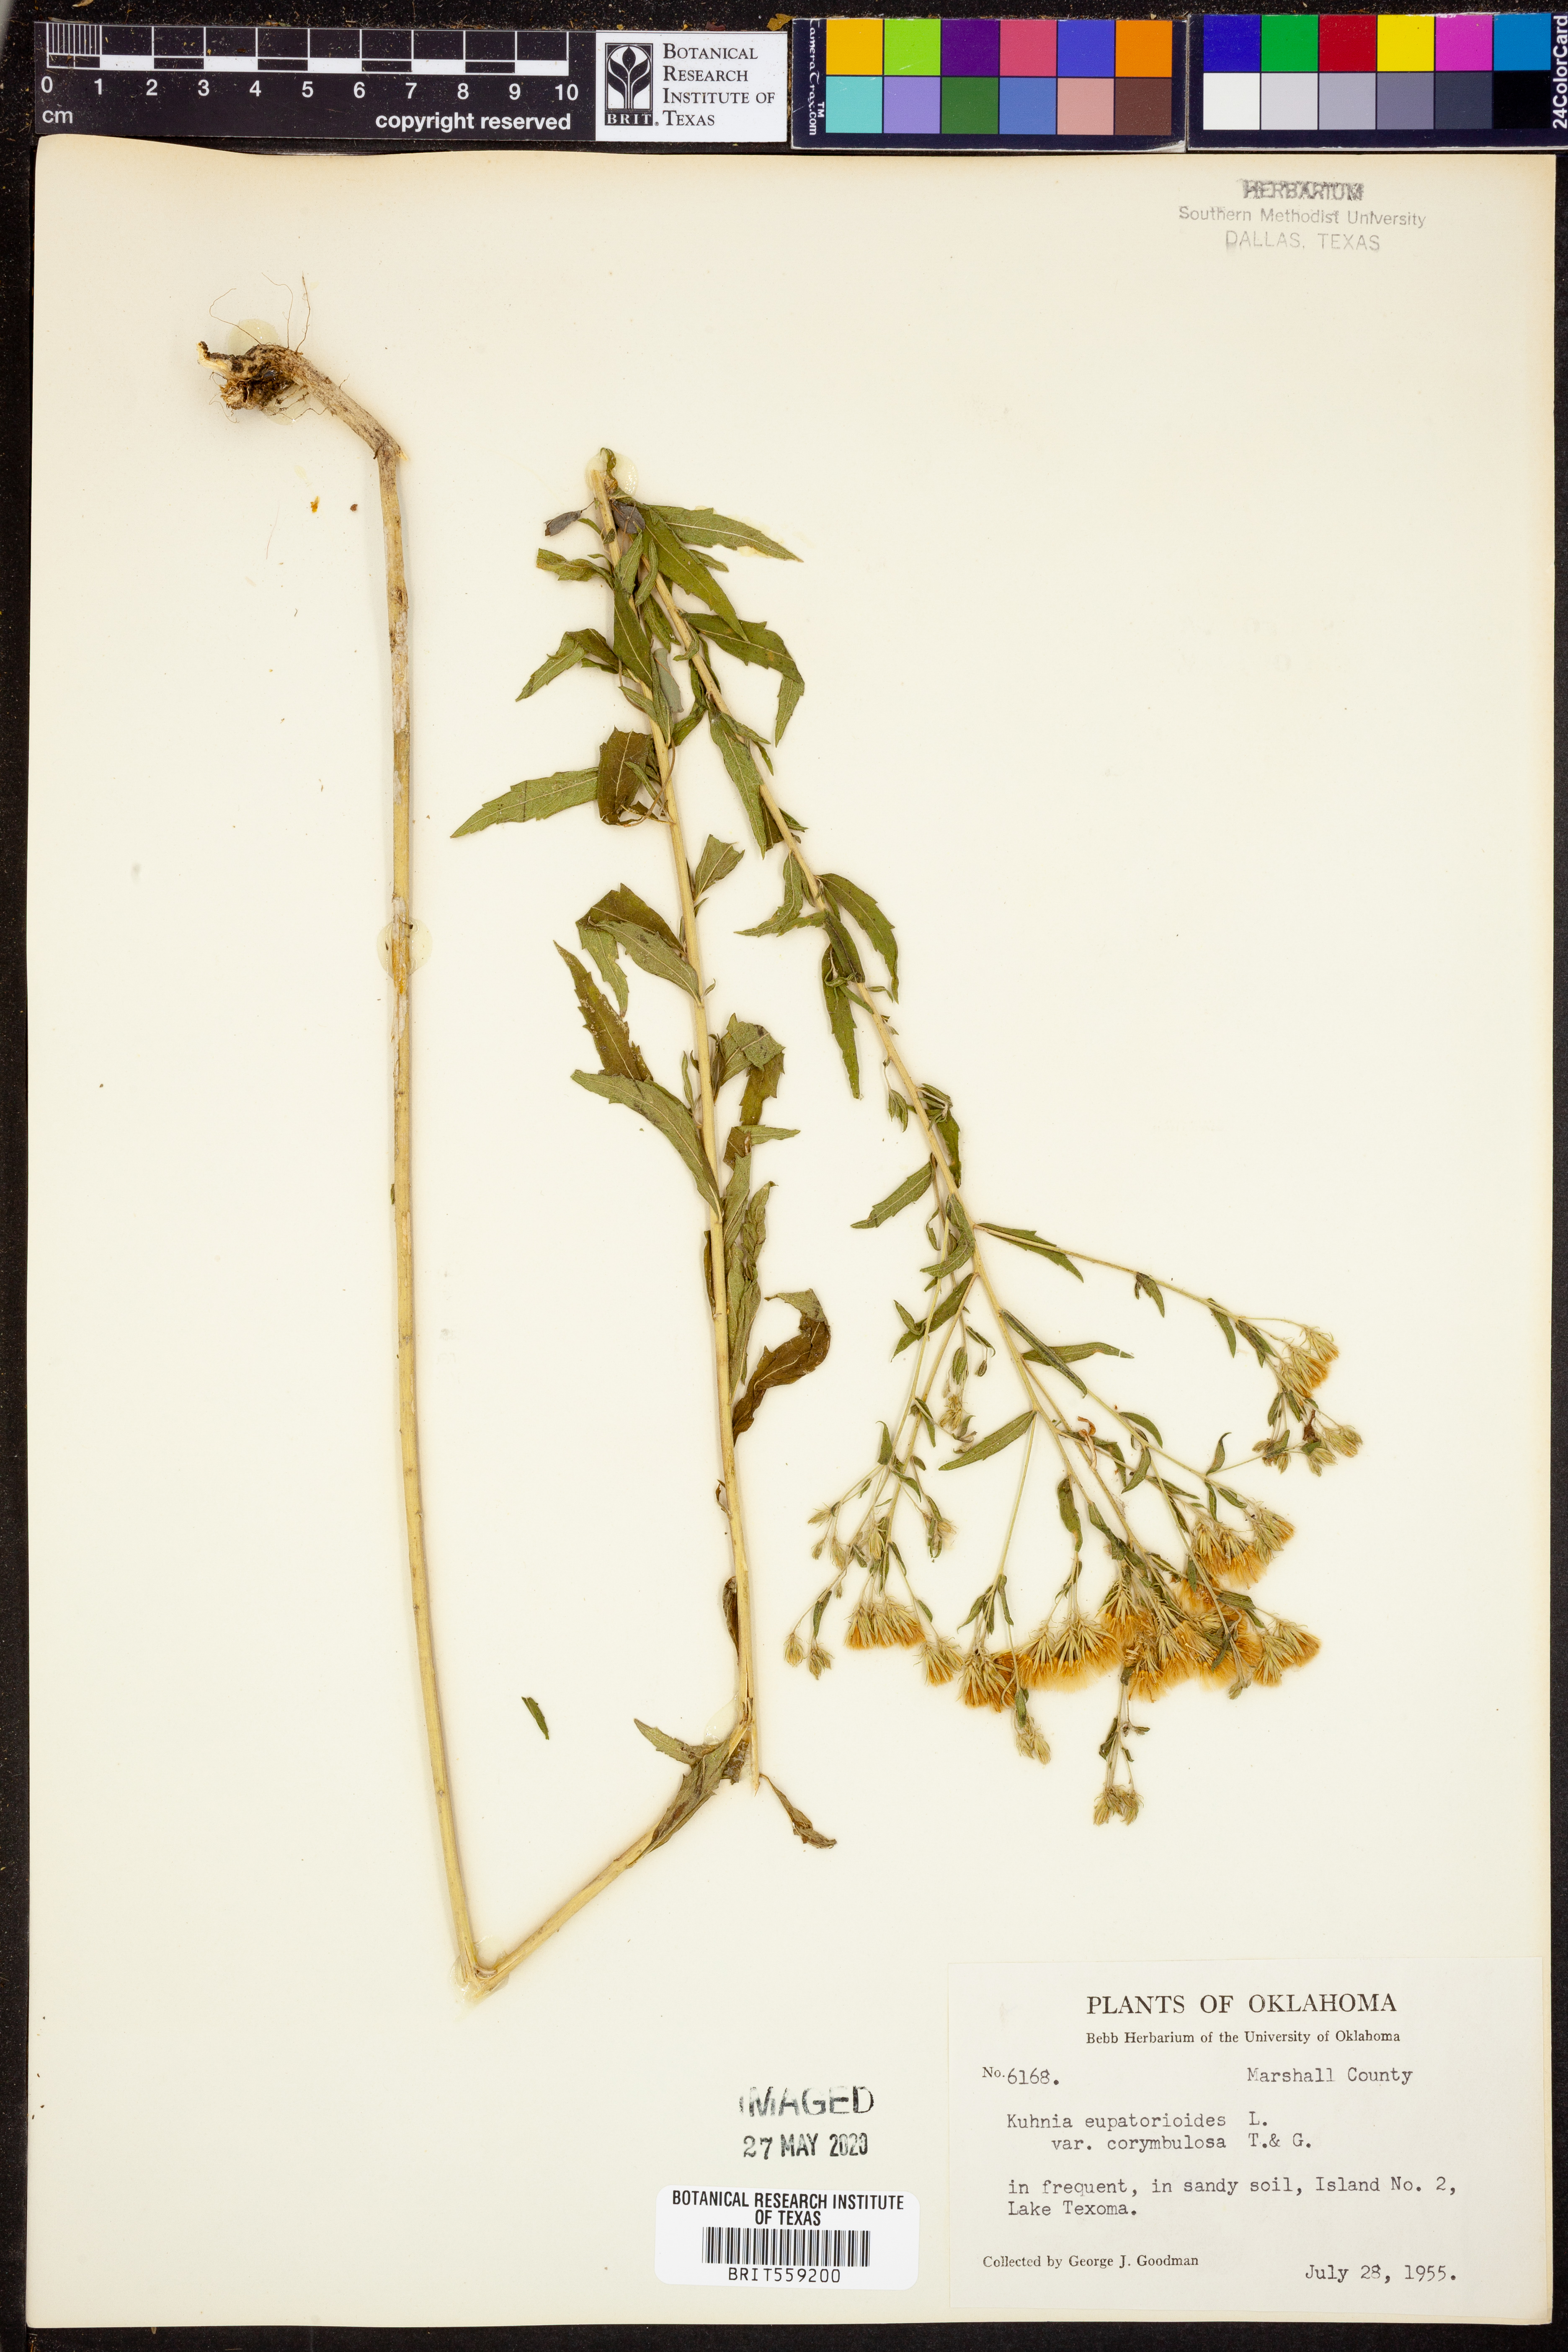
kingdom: Plantae
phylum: Tracheophyta
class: Magnoliopsida
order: Asterales
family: Asteraceae
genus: Brickellia
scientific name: Brickellia suaveolens
